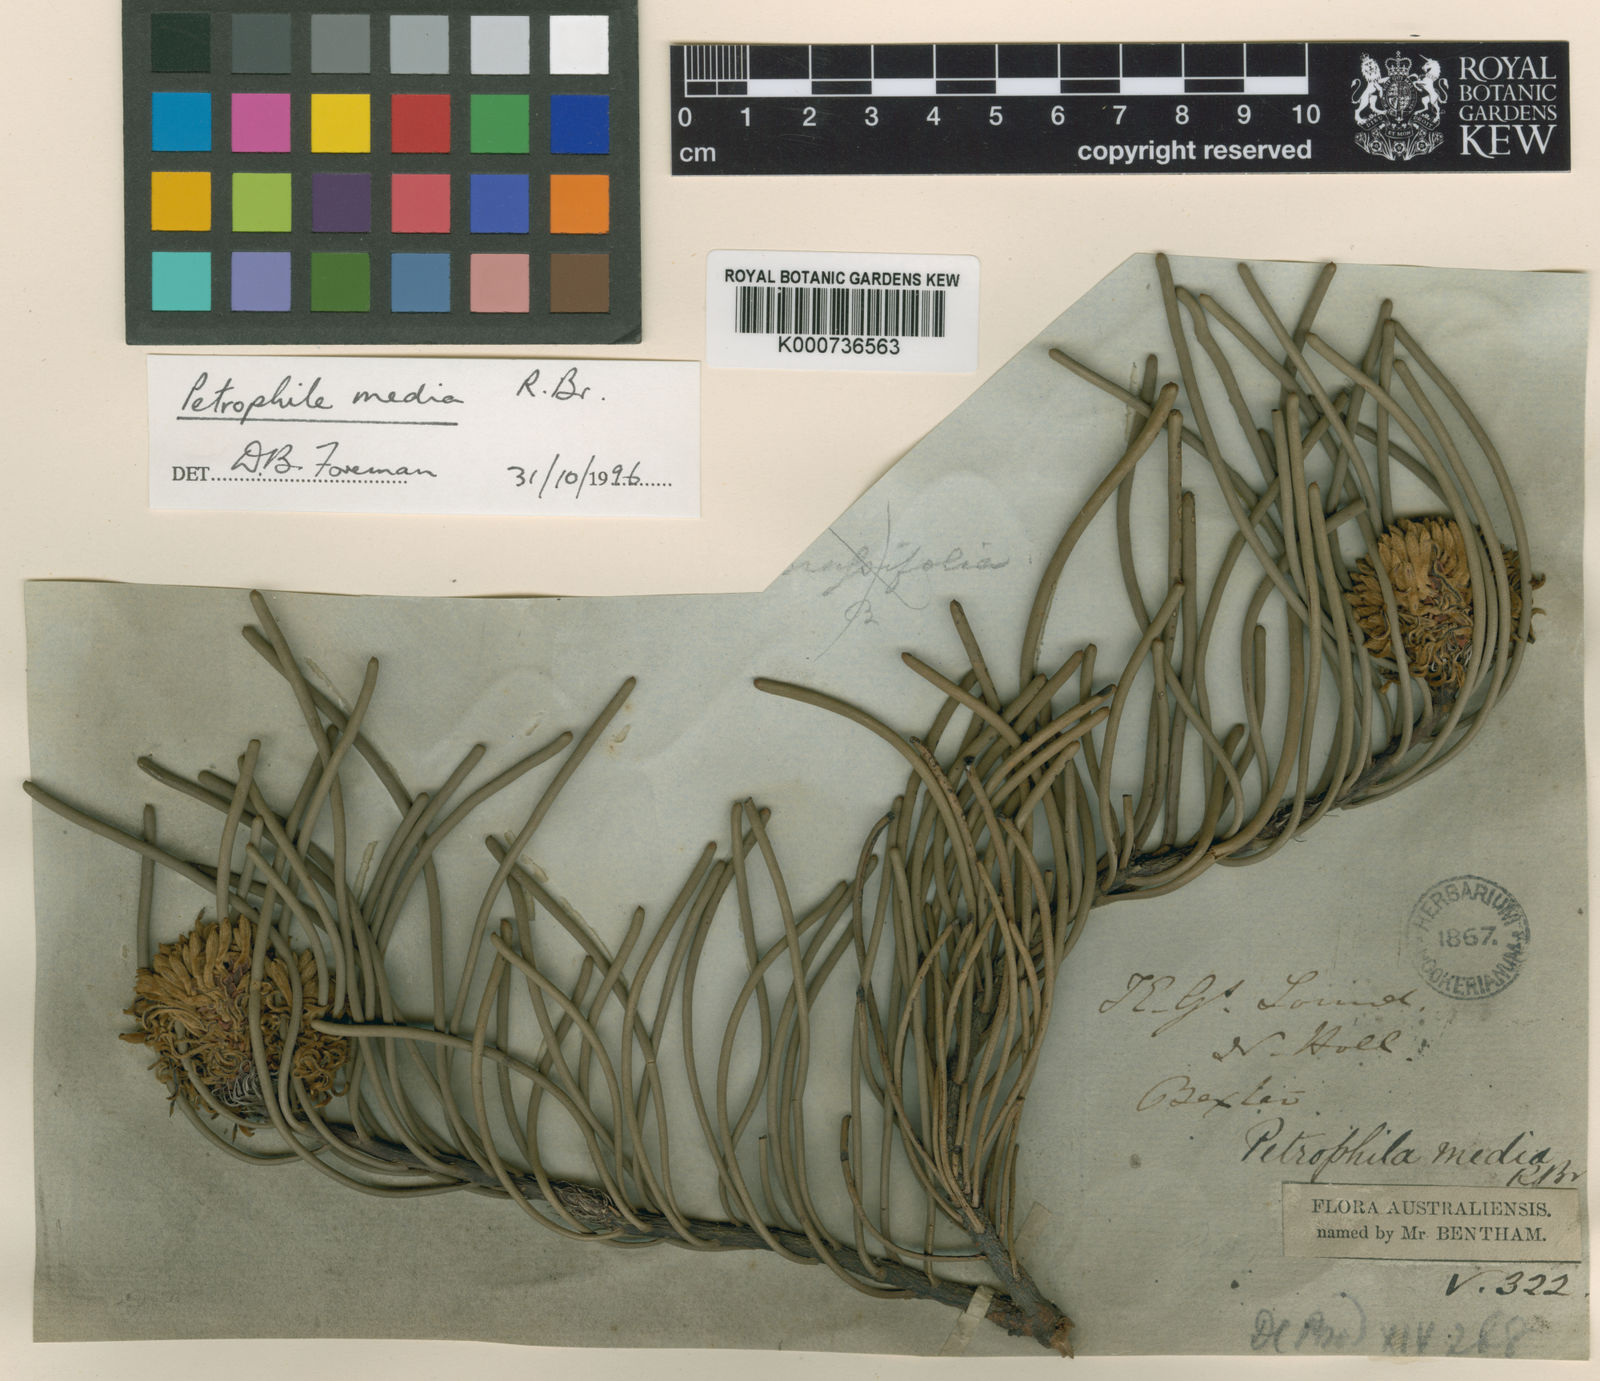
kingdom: Plantae
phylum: Tracheophyta
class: Magnoliopsida
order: Proteales
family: Proteaceae
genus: Petrophile
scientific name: Petrophile media
